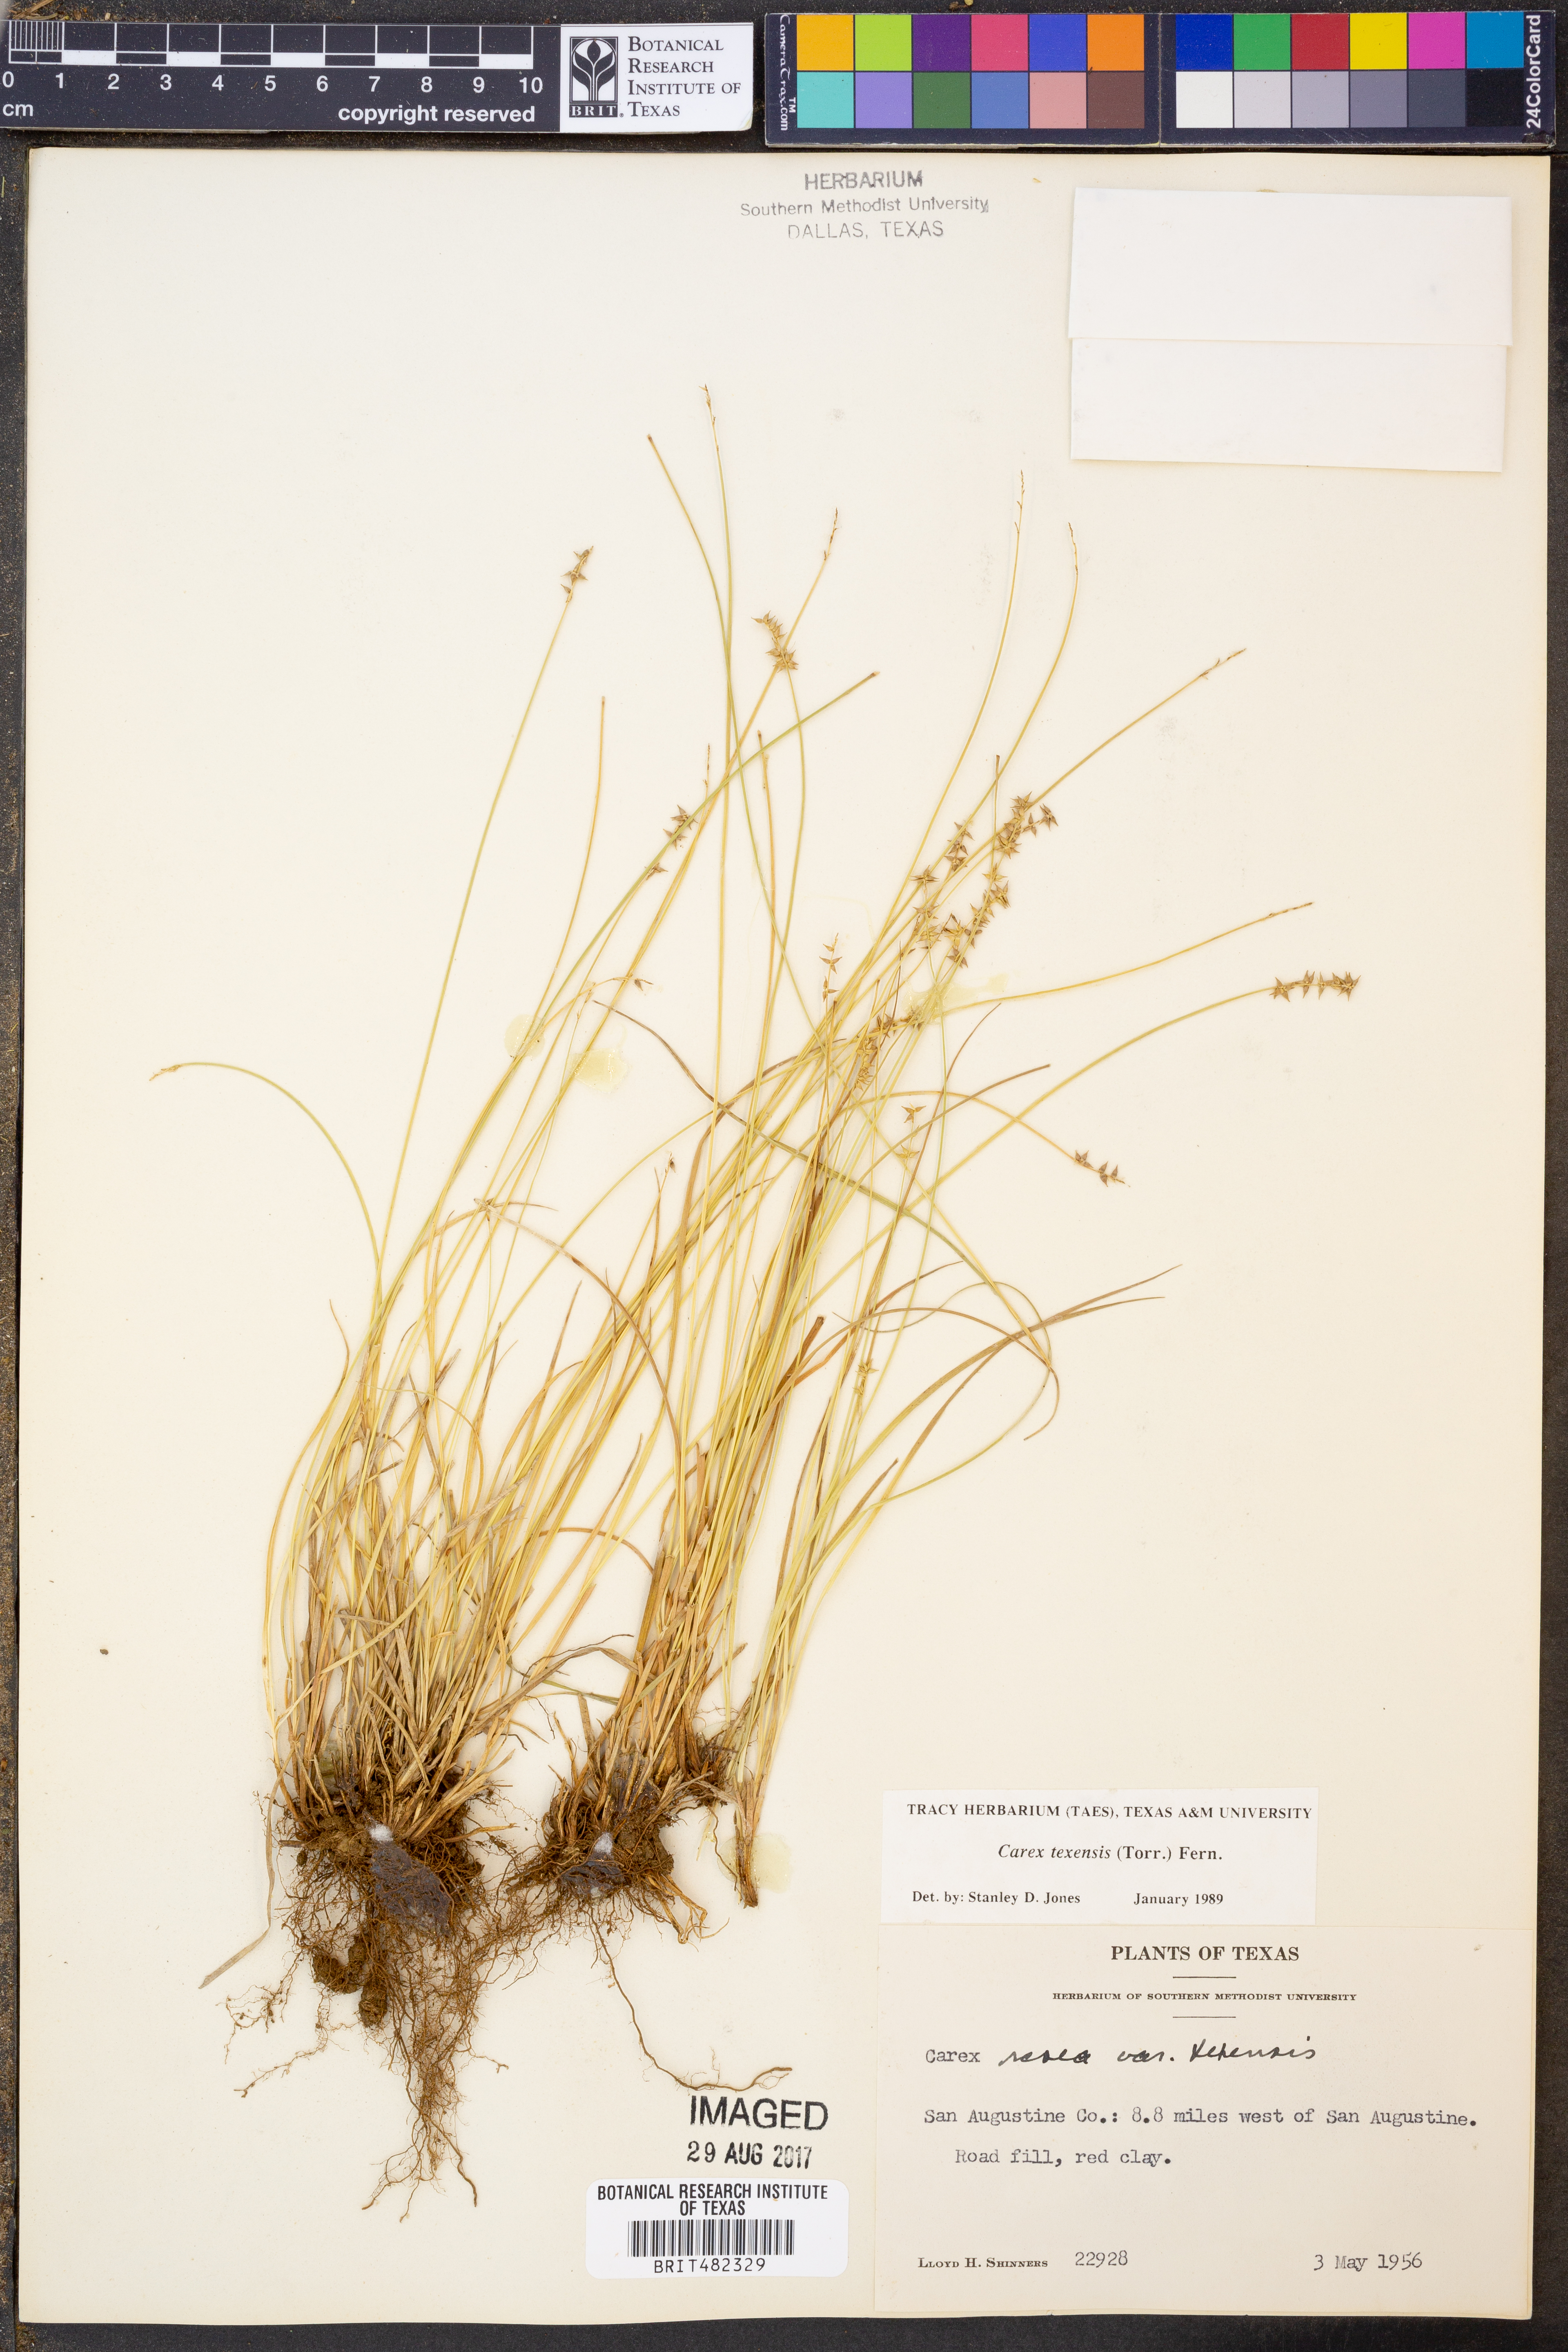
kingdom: Plantae
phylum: Tracheophyta
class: Liliopsida
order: Poales
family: Cyperaceae
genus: Carex
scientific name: Carex texensis
